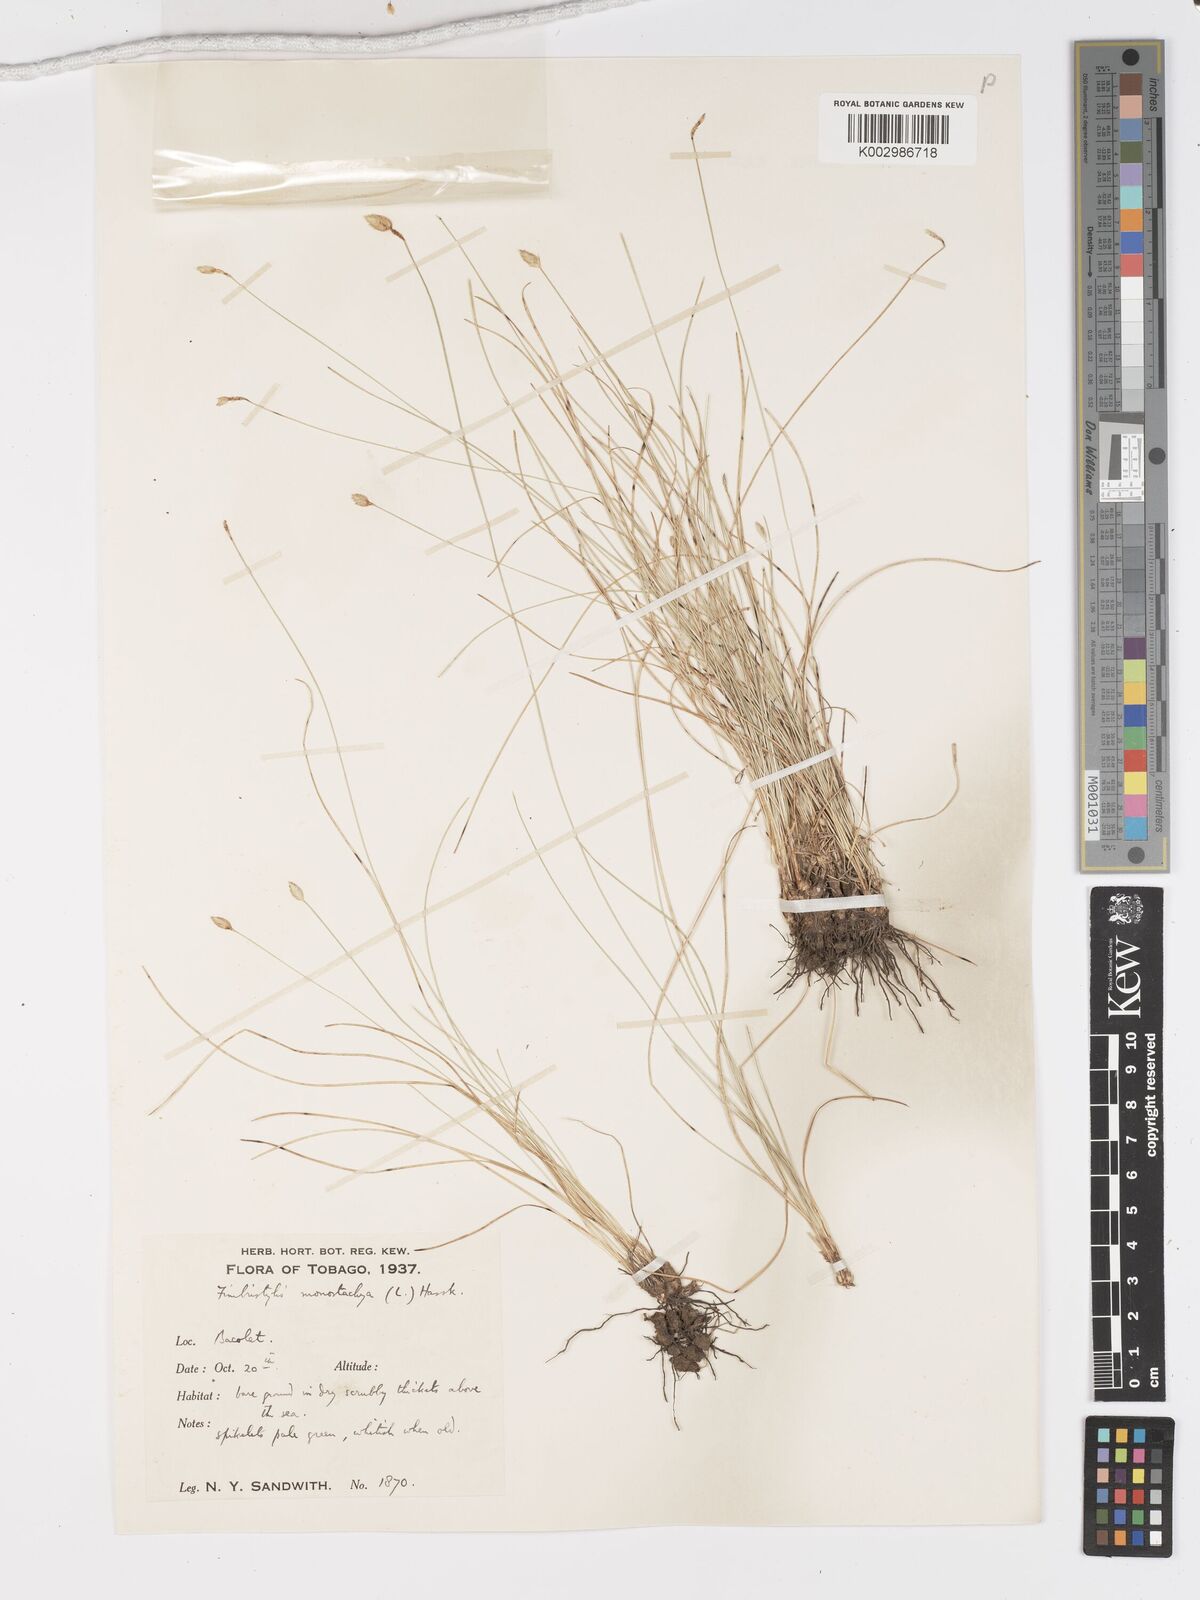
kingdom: Plantae
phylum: Tracheophyta
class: Liliopsida
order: Poales
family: Cyperaceae
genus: Fimbristylis
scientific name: Fimbristylis
